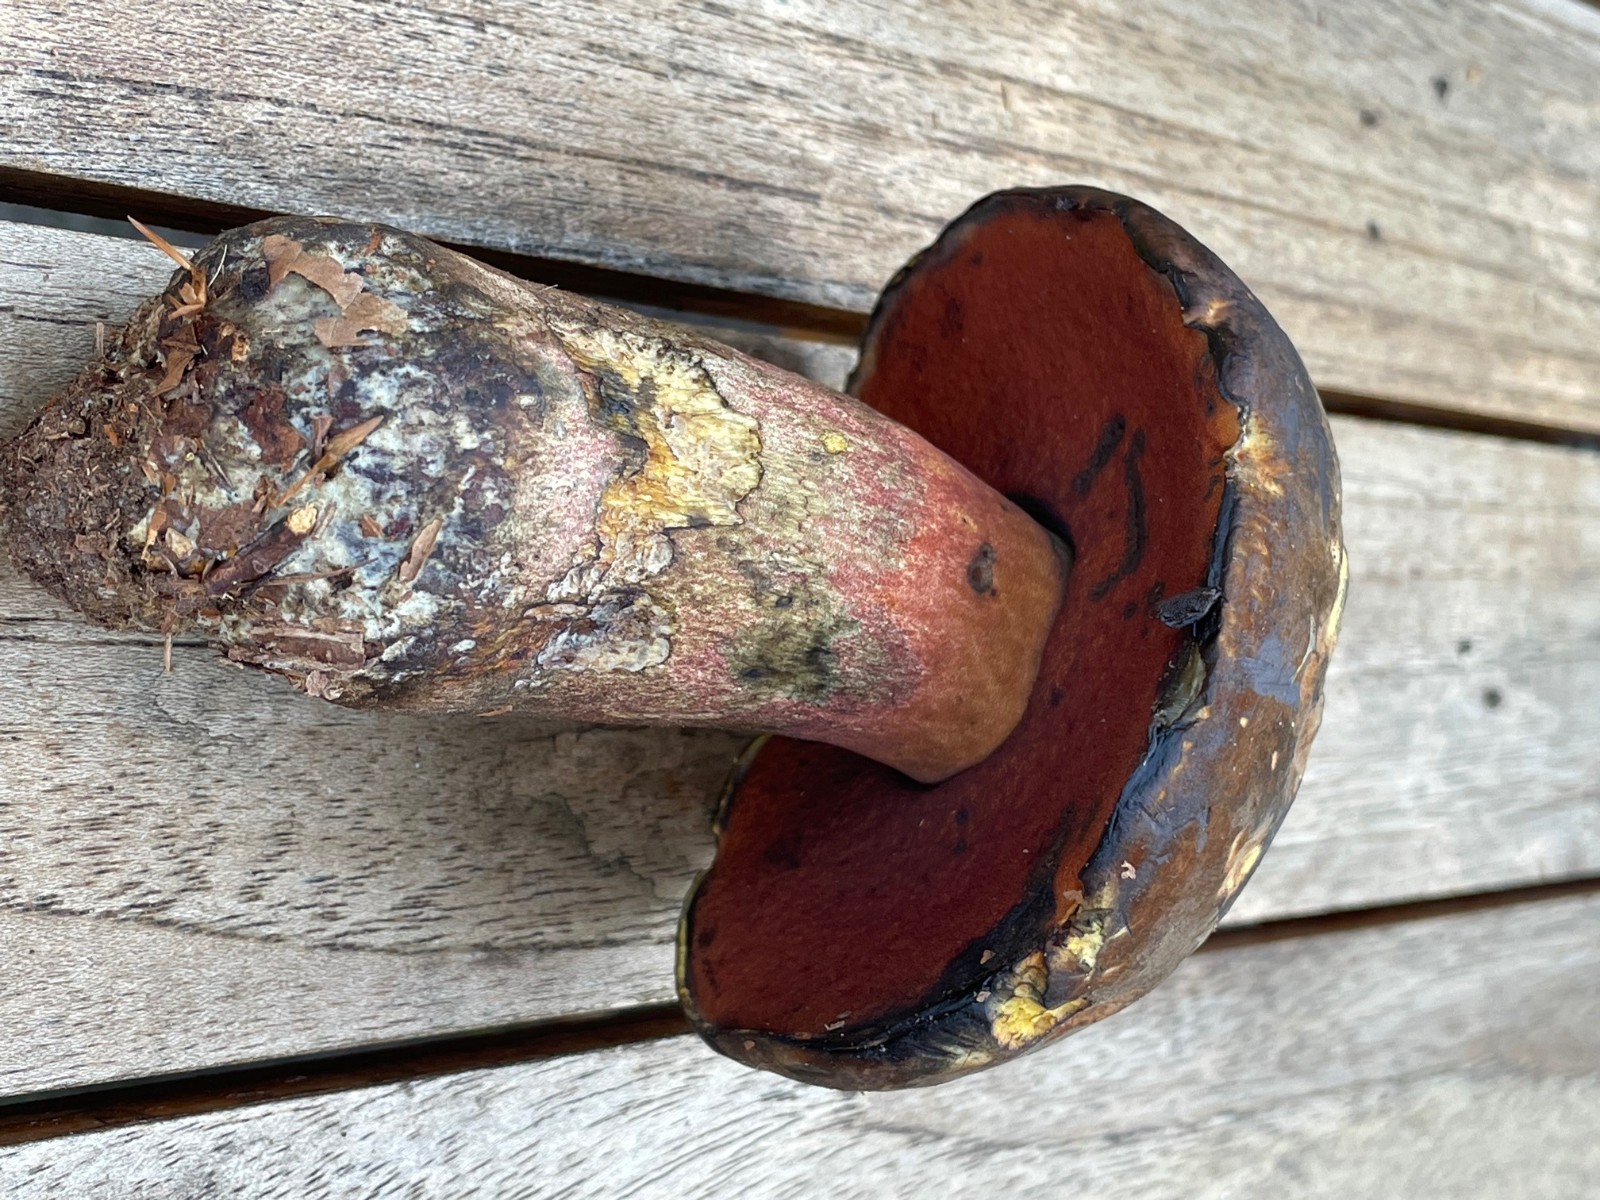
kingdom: Fungi
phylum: Basidiomycota
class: Agaricomycetes
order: Boletales
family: Boletaceae
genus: Neoboletus
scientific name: Neoboletus erythropus
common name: punktstokket indigorørhat
